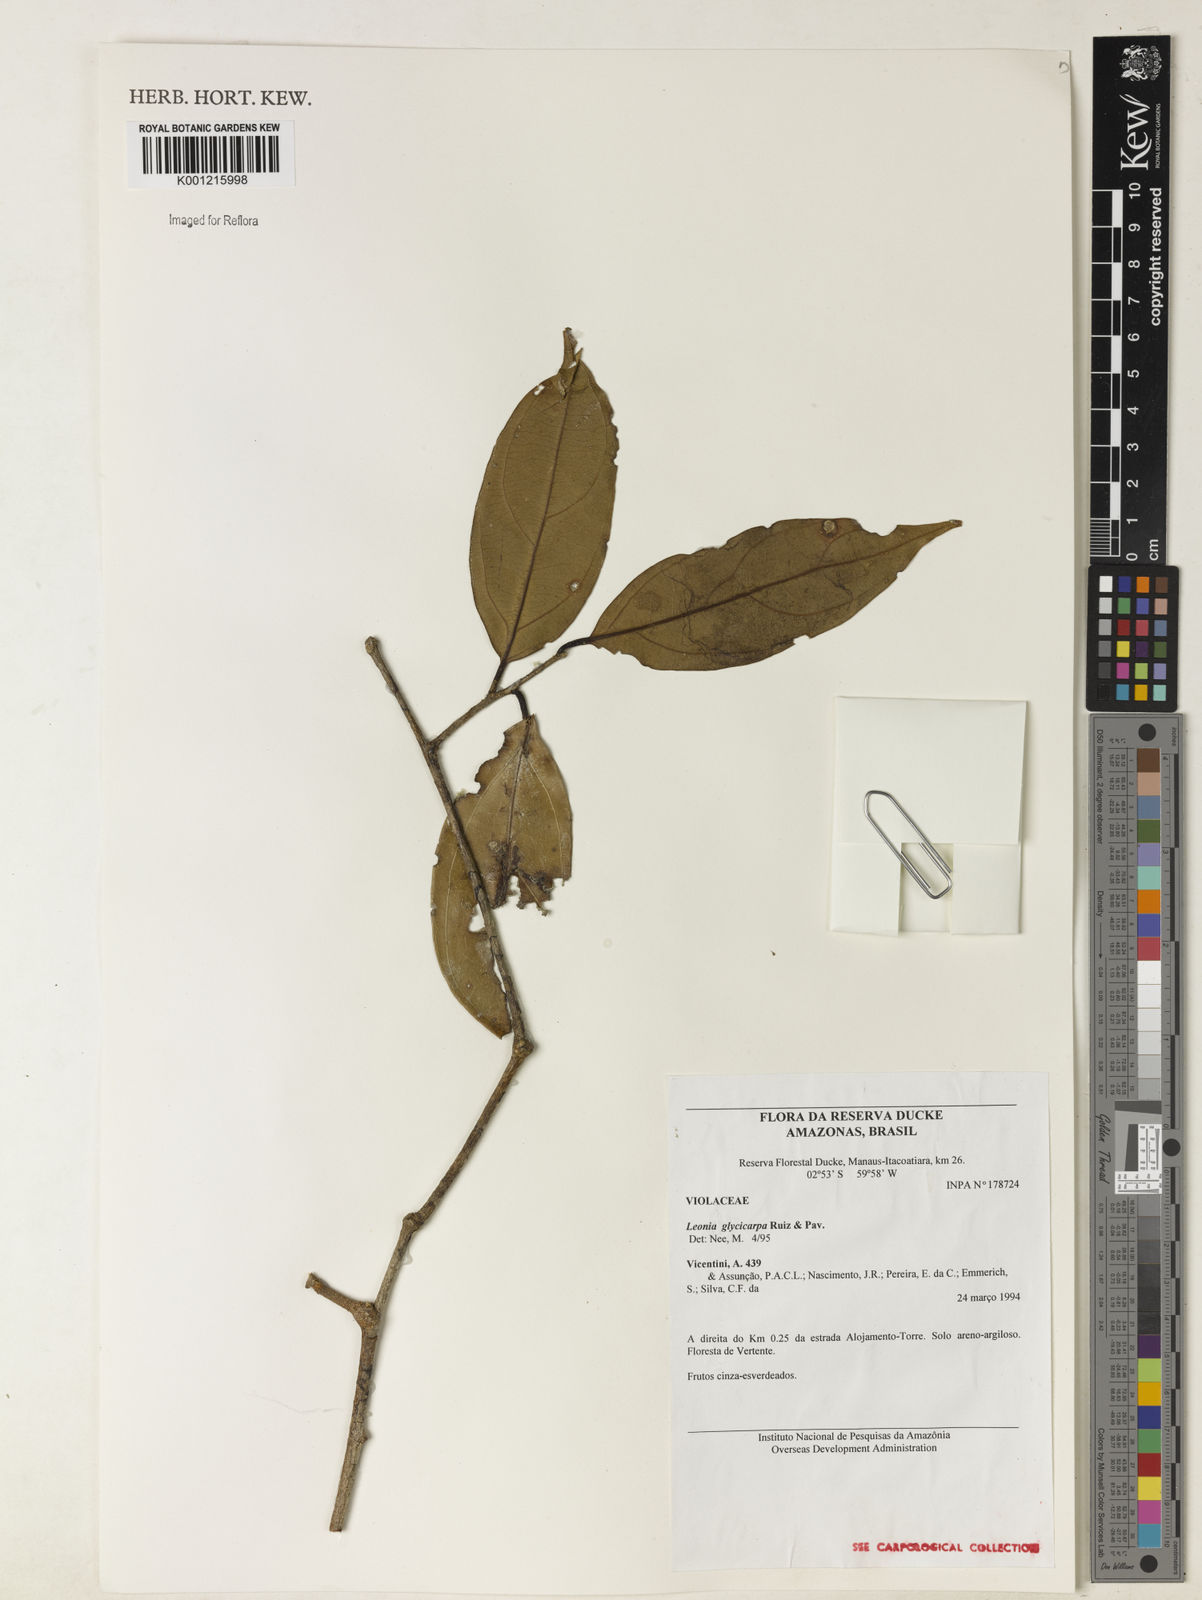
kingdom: Plantae
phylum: Tracheophyta
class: Magnoliopsida
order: Malpighiales
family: Violaceae
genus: Leonia
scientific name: Leonia glycycarpa
